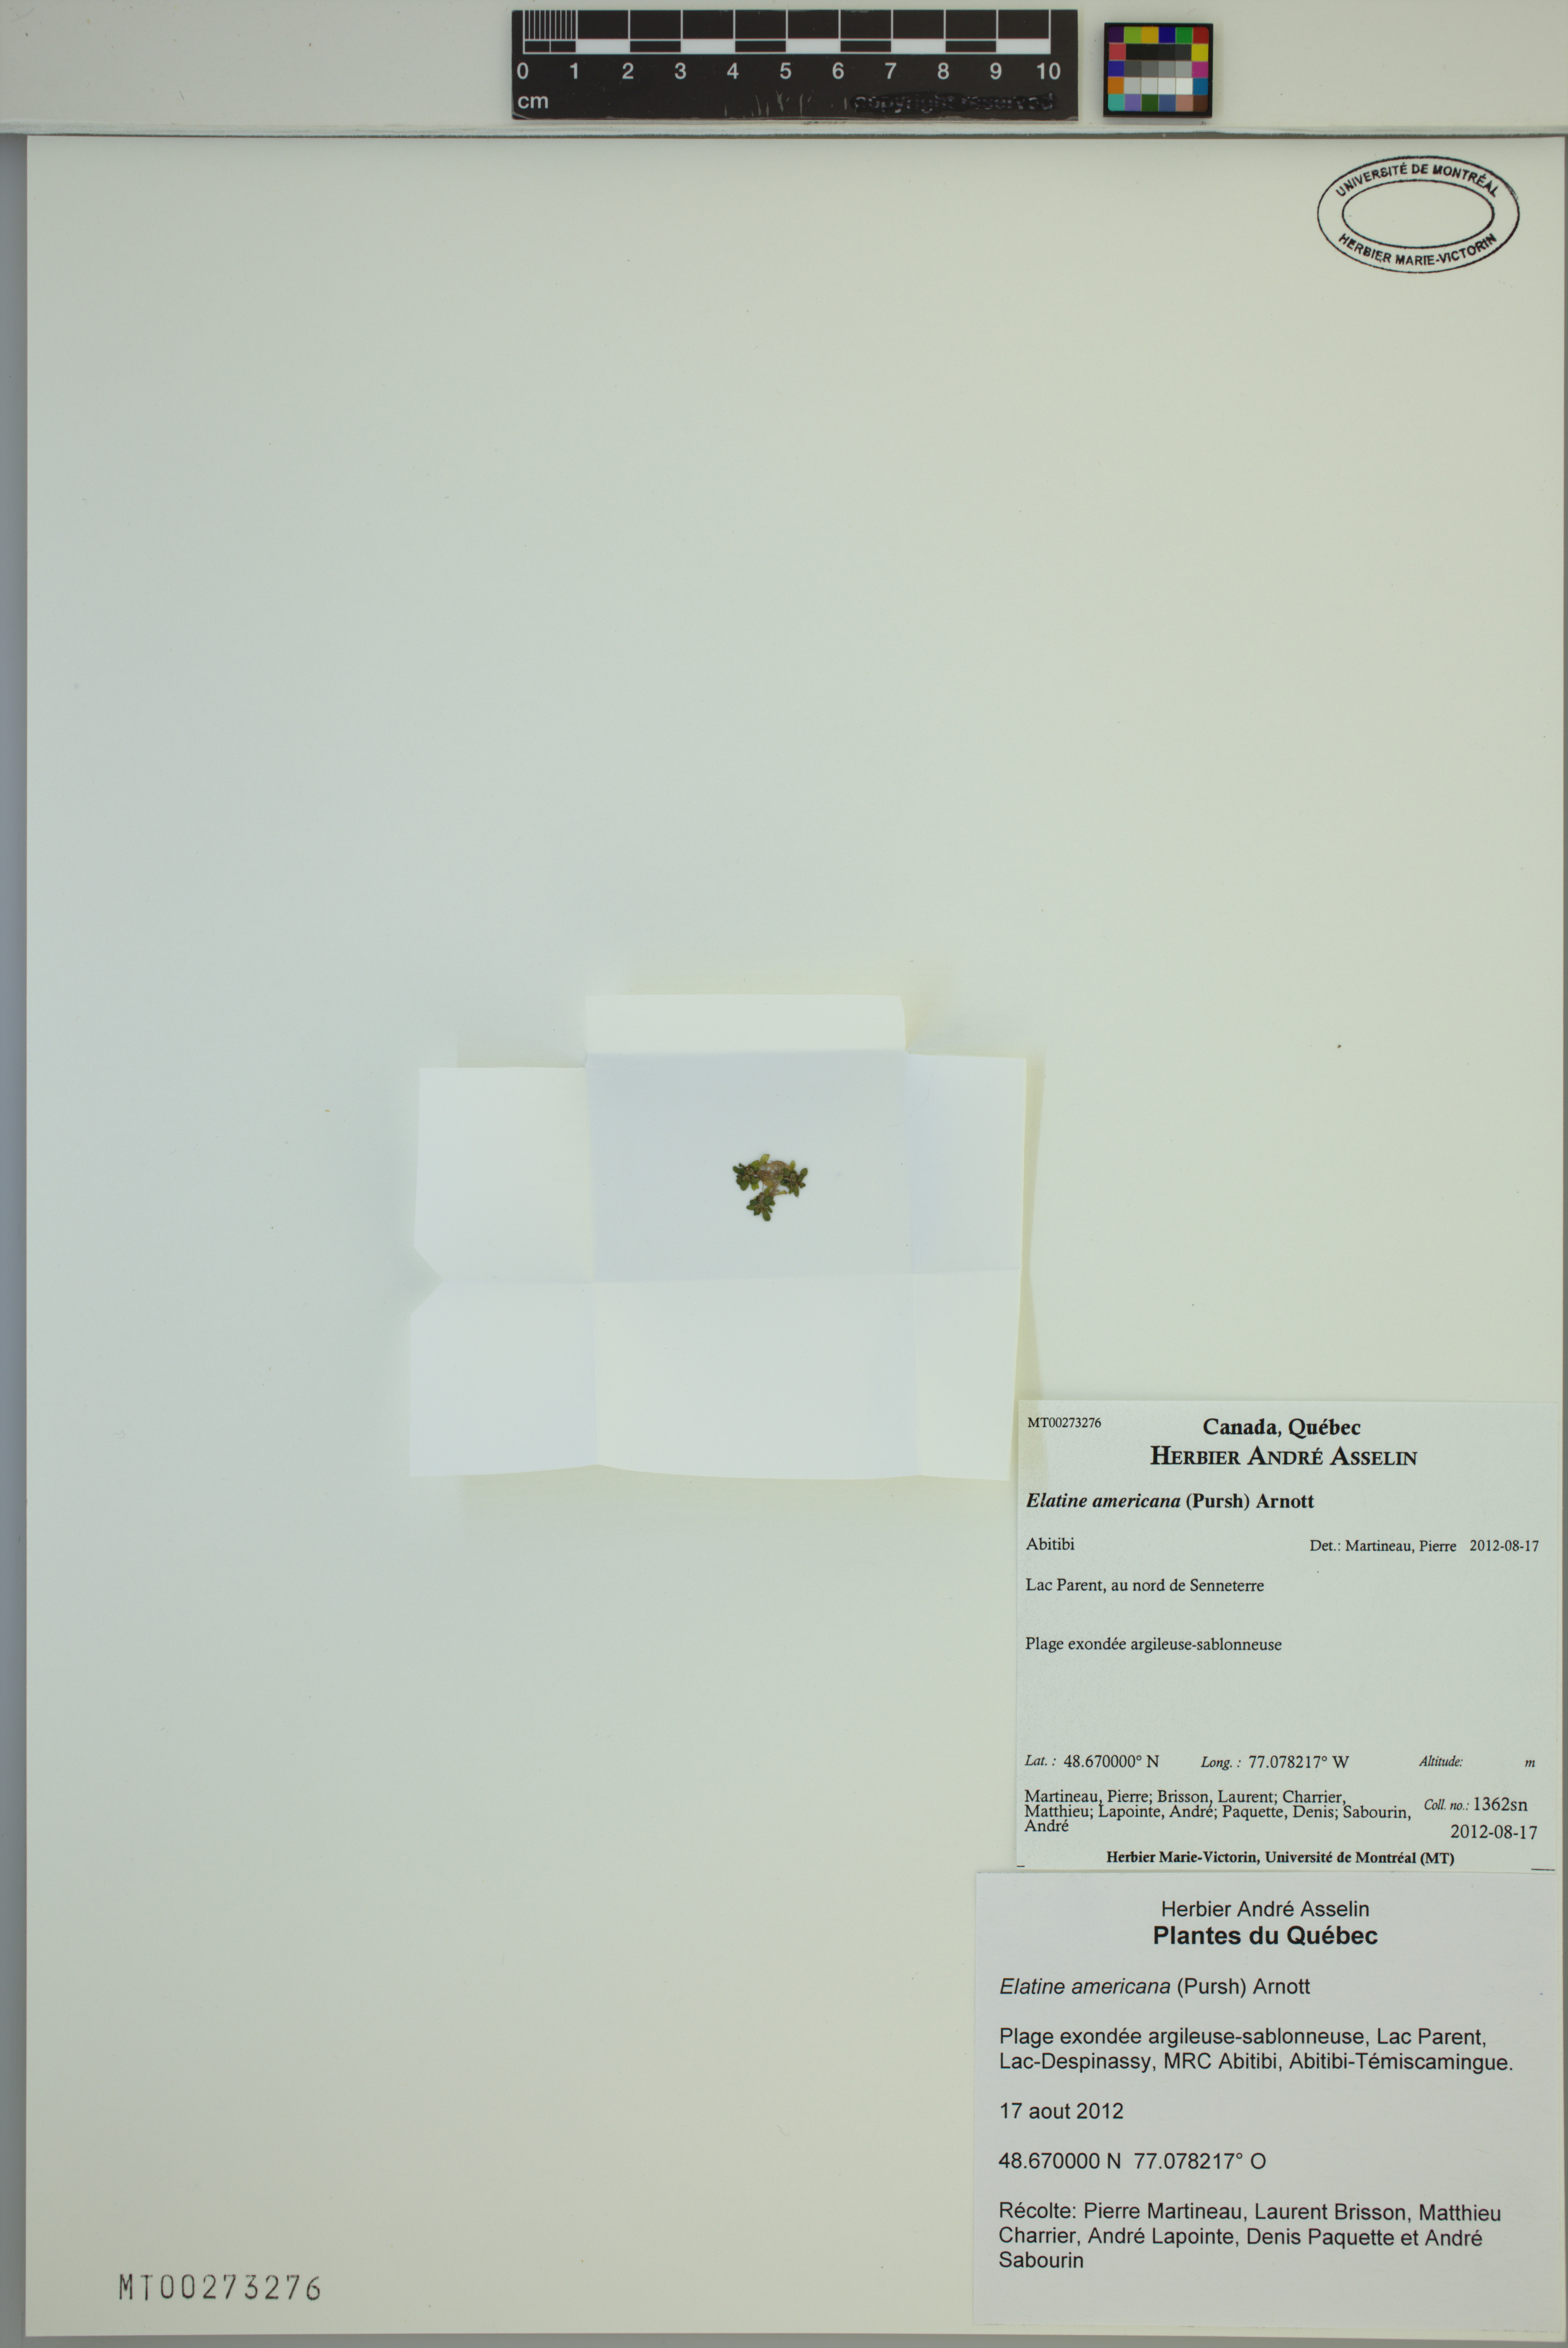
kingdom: Plantae
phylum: Tracheophyta
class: Magnoliopsida
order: Malpighiales
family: Elatinaceae
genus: Elatine
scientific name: Elatine americana
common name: American waterwort
